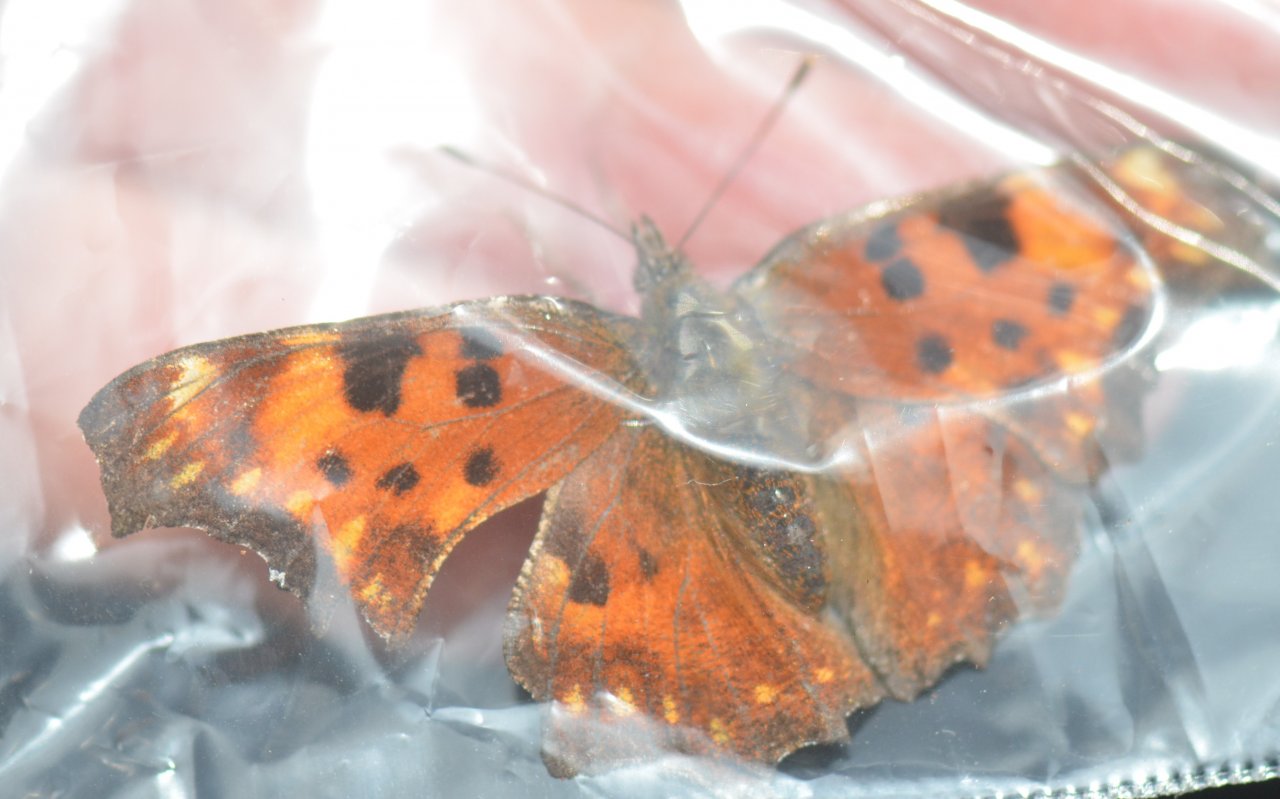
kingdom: Animalia
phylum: Arthropoda
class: Insecta
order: Lepidoptera
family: Nymphalidae
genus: Polygonia
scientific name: Polygonia gracilis
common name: Hoary Comma
